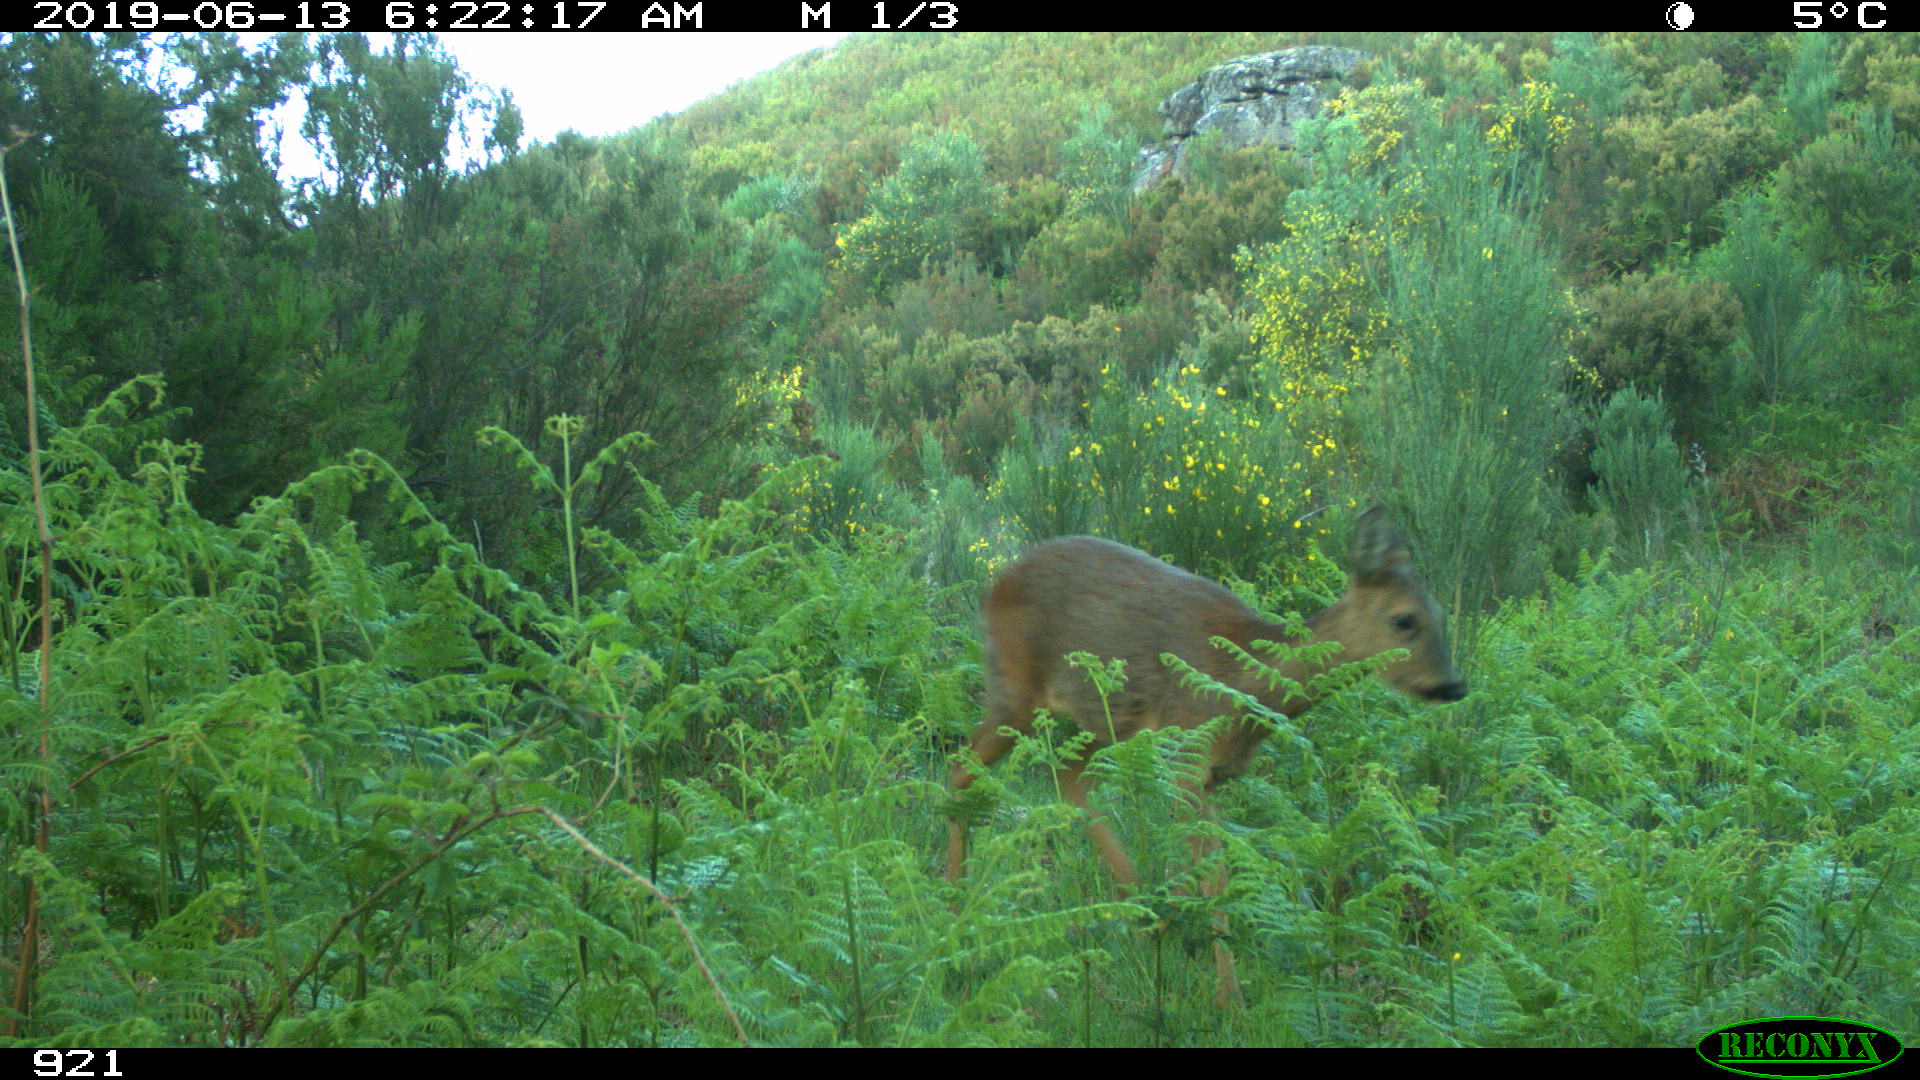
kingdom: Animalia
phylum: Chordata
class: Mammalia
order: Artiodactyla
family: Cervidae
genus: Capreolus
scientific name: Capreolus capreolus
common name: Western roe deer
